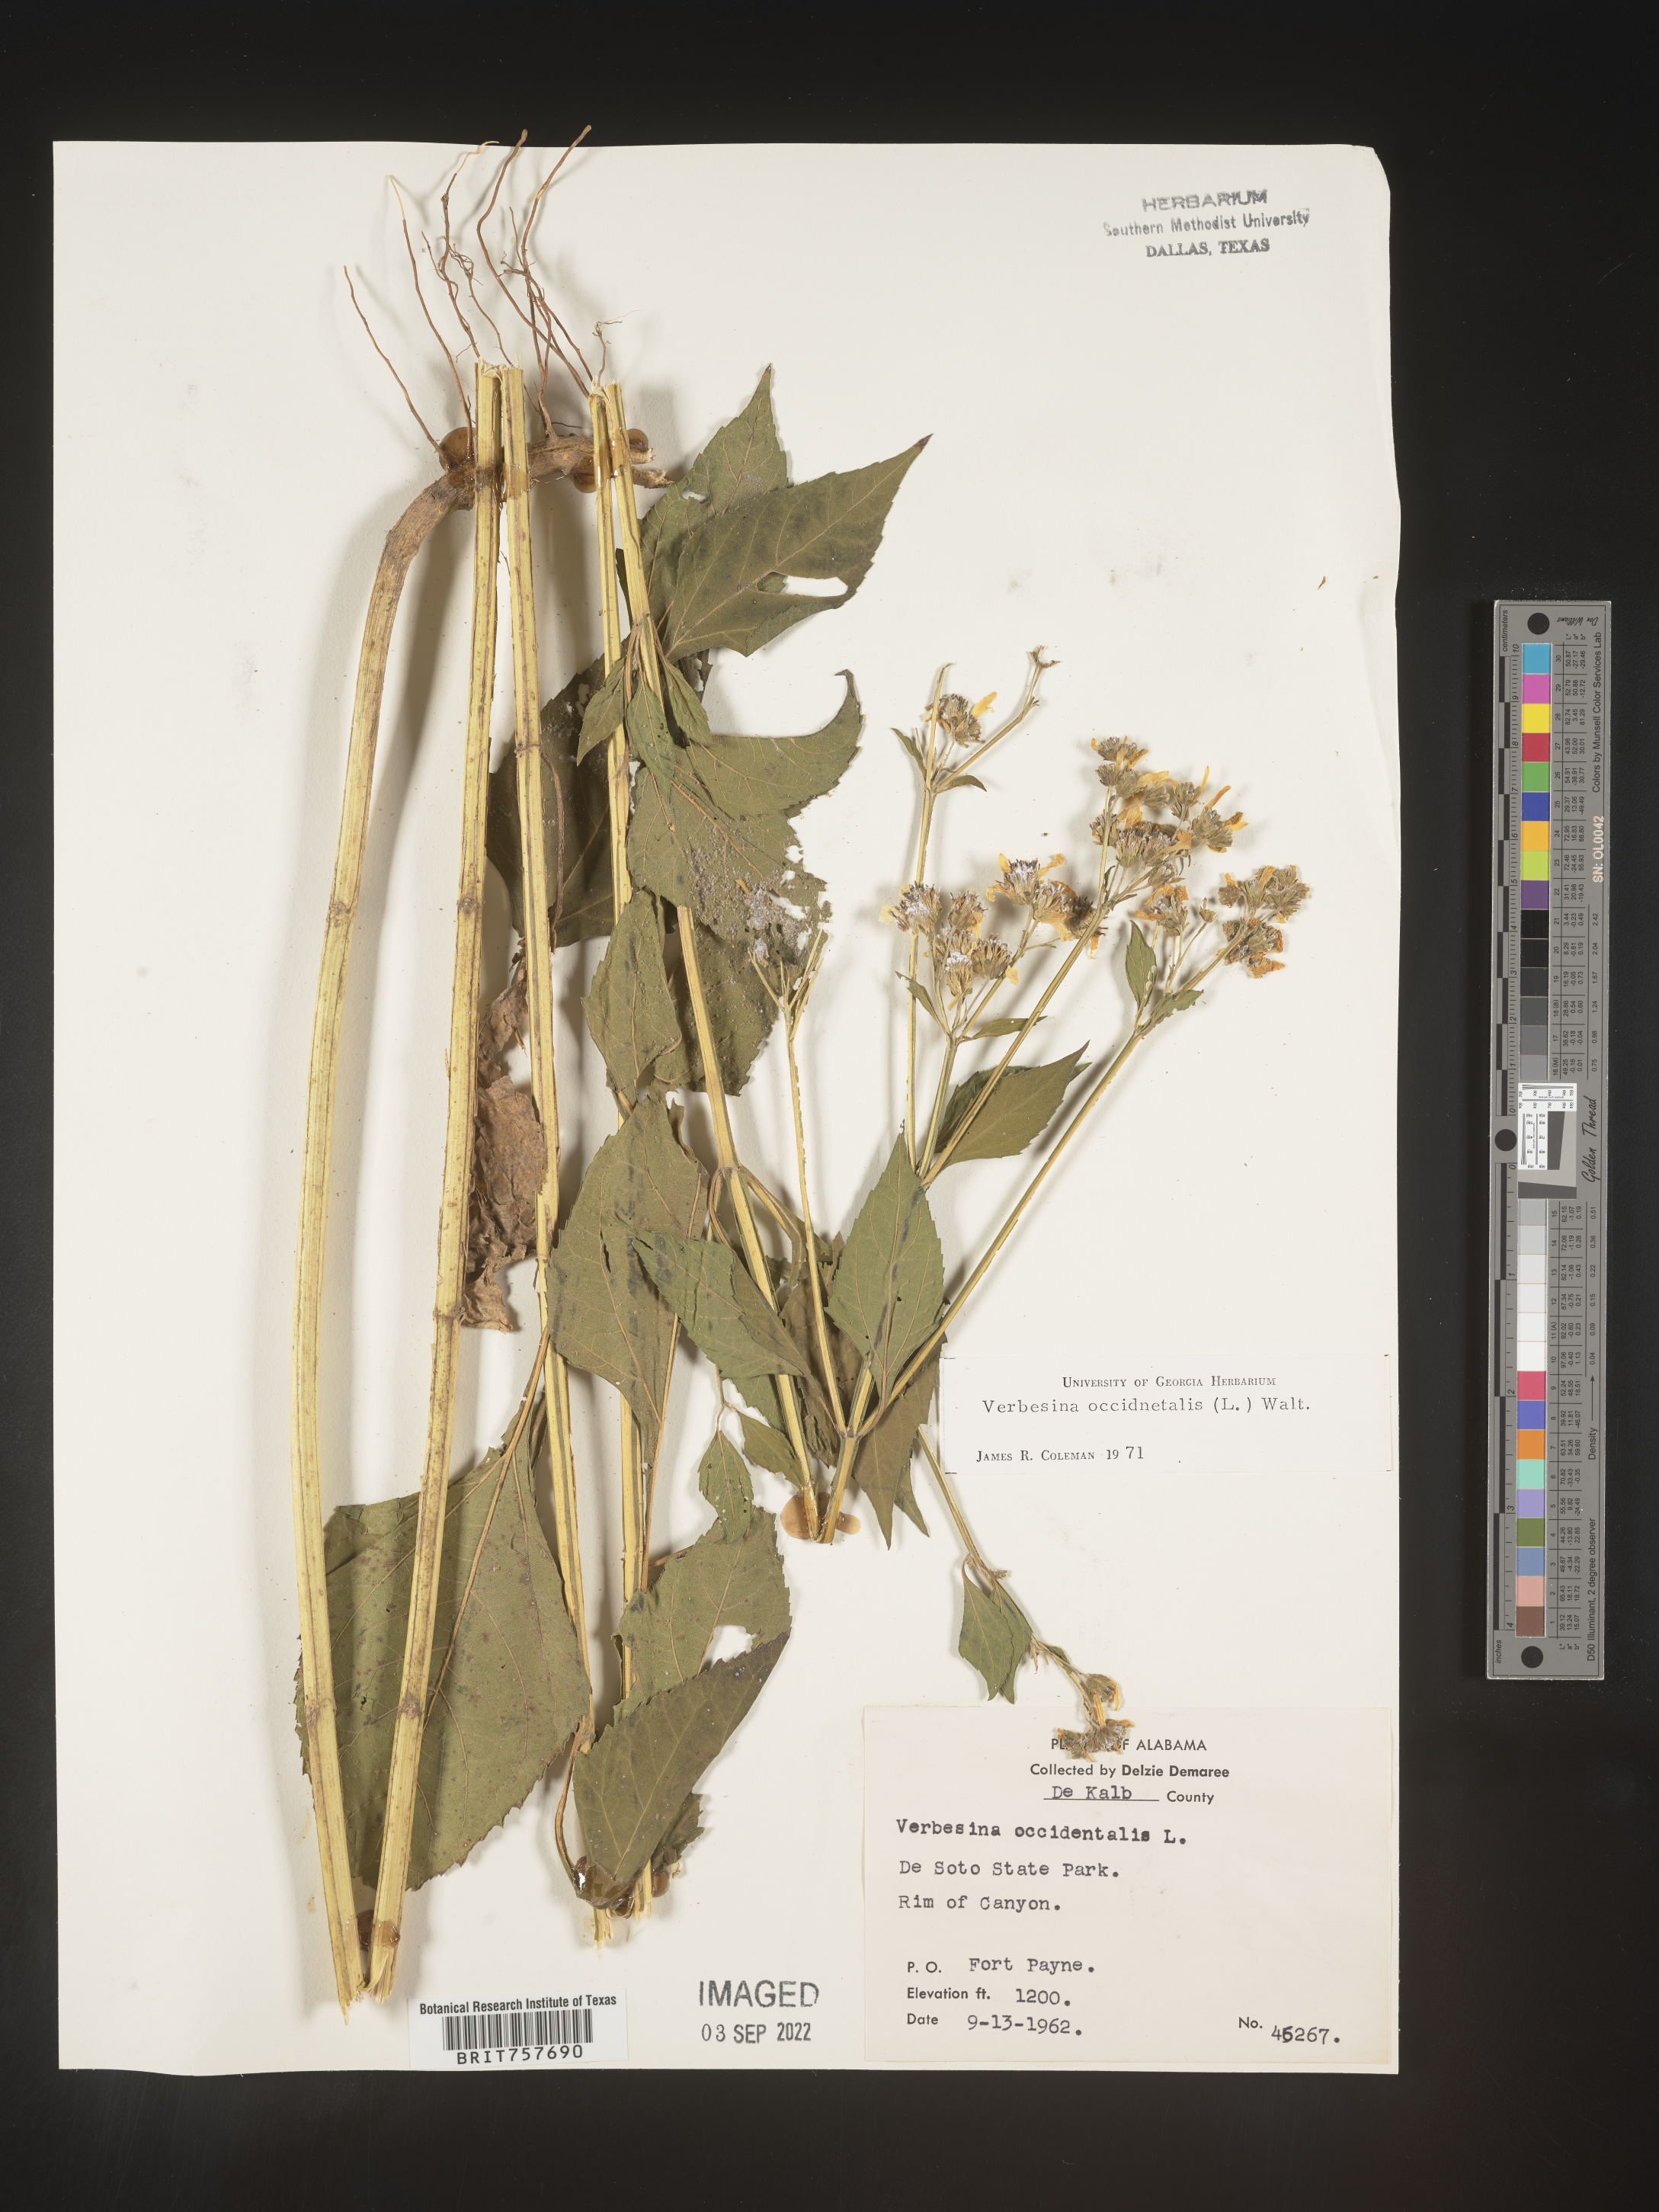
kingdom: Plantae
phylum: Tracheophyta
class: Magnoliopsida
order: Asterales
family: Asteraceae
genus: Verbesina
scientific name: Verbesina occidentalis
